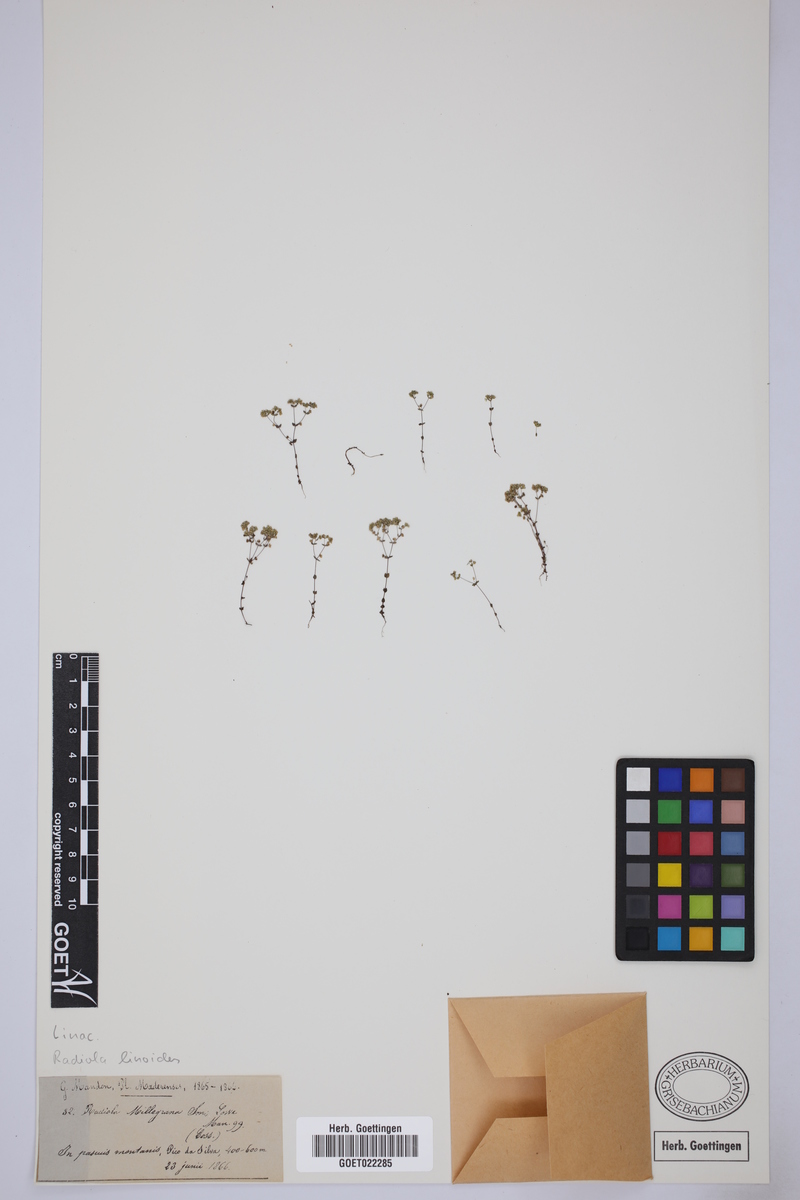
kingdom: Plantae
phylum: Tracheophyta
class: Magnoliopsida
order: Malpighiales
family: Linaceae
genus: Radiola
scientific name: Radiola linoides
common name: Allseed
